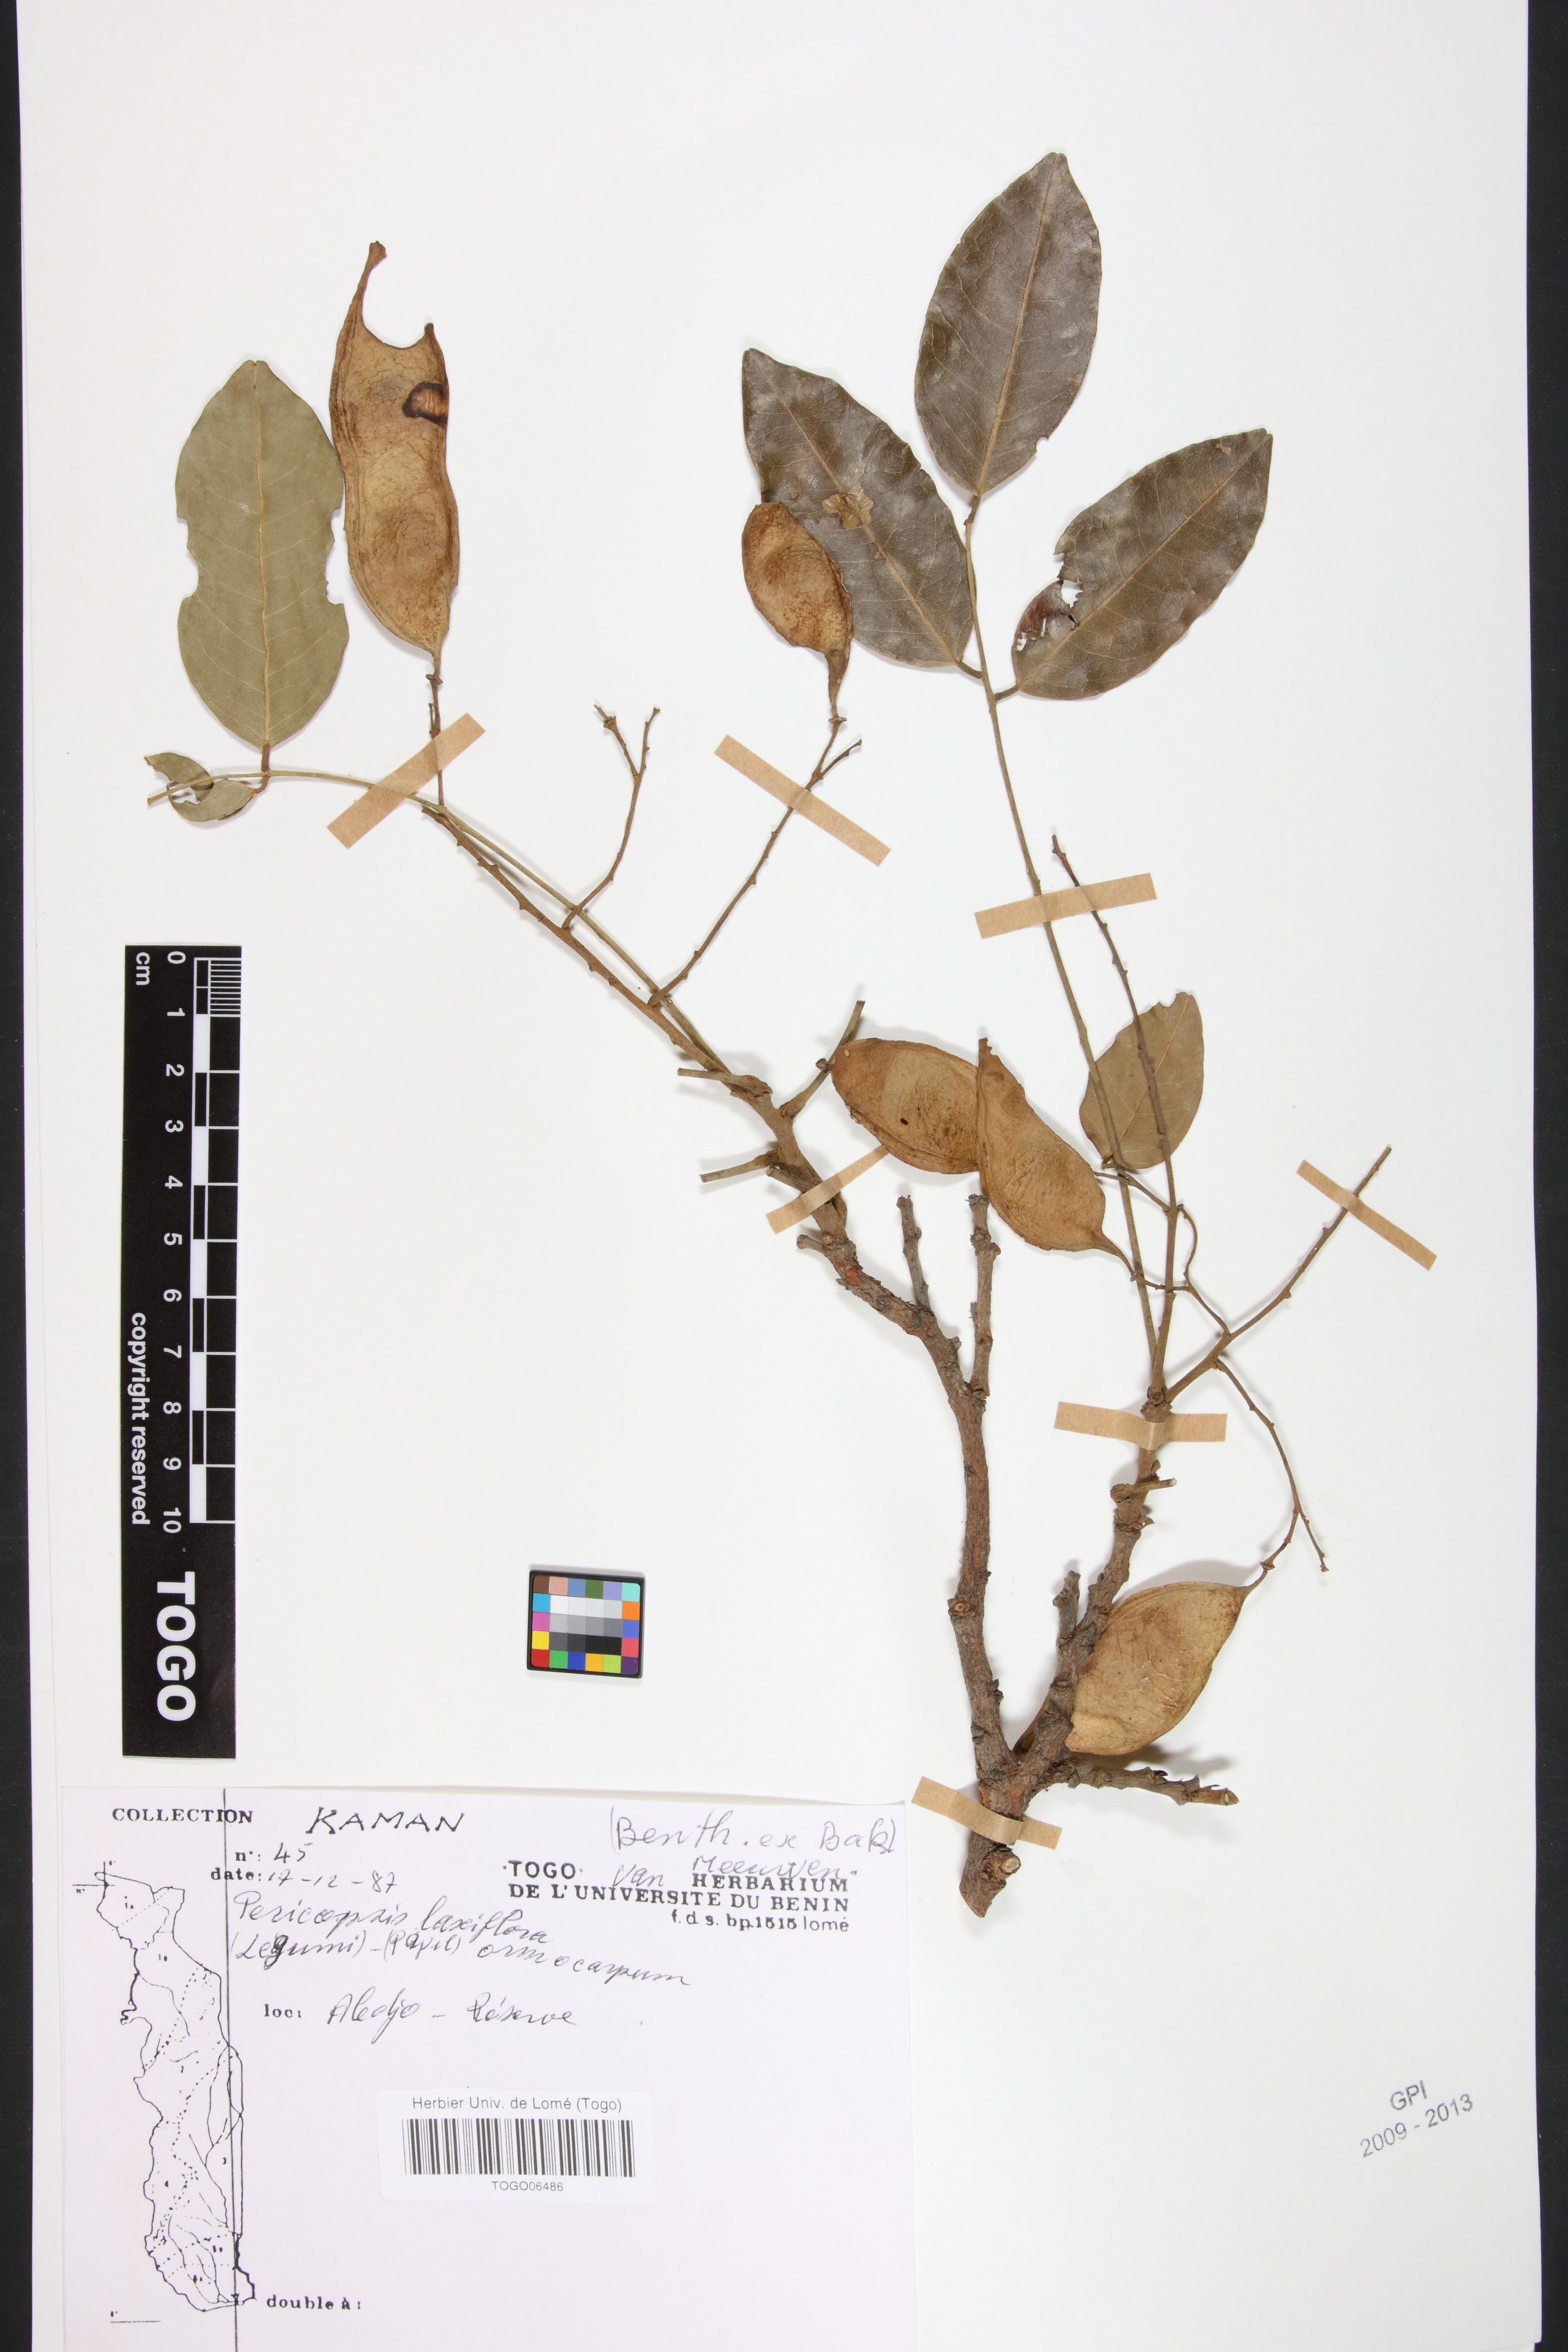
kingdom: Plantae
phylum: Tracheophyta
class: Magnoliopsida
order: Fabales
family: Fabaceae
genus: Pericopsis
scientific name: Pericopsis laxiflora
